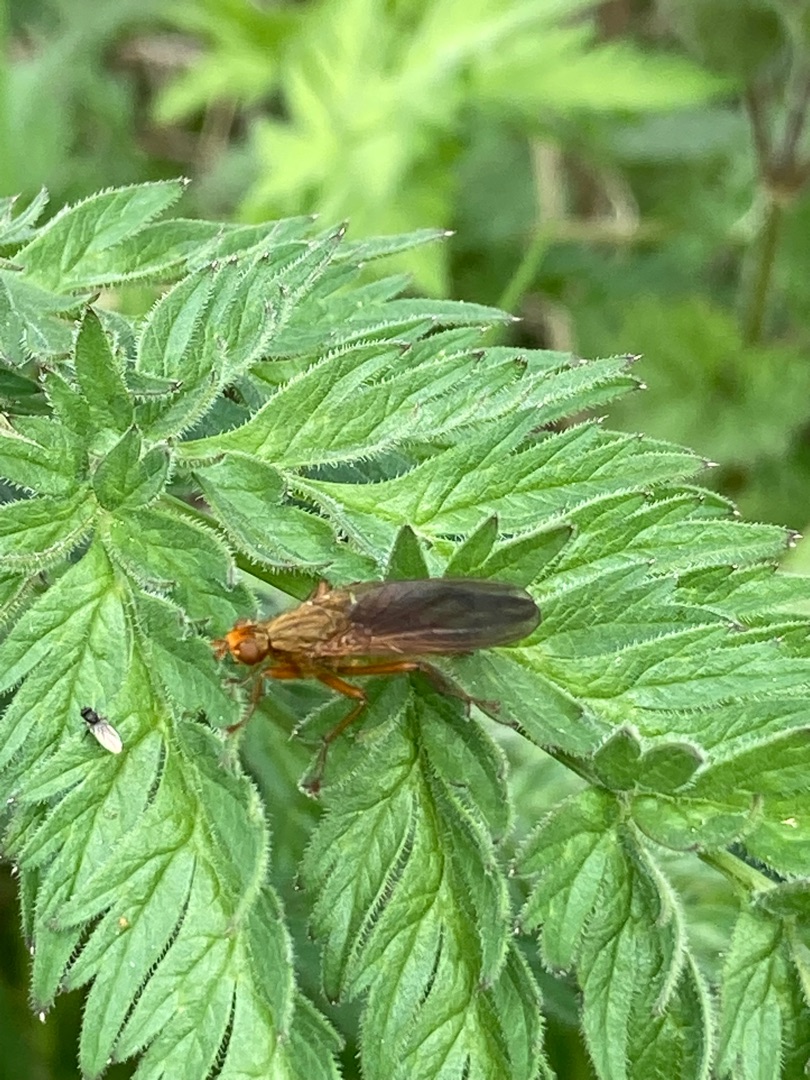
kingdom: Animalia
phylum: Arthropoda
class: Insecta
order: Diptera
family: Scathophagidae
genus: Scathophaga
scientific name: Scathophaga
